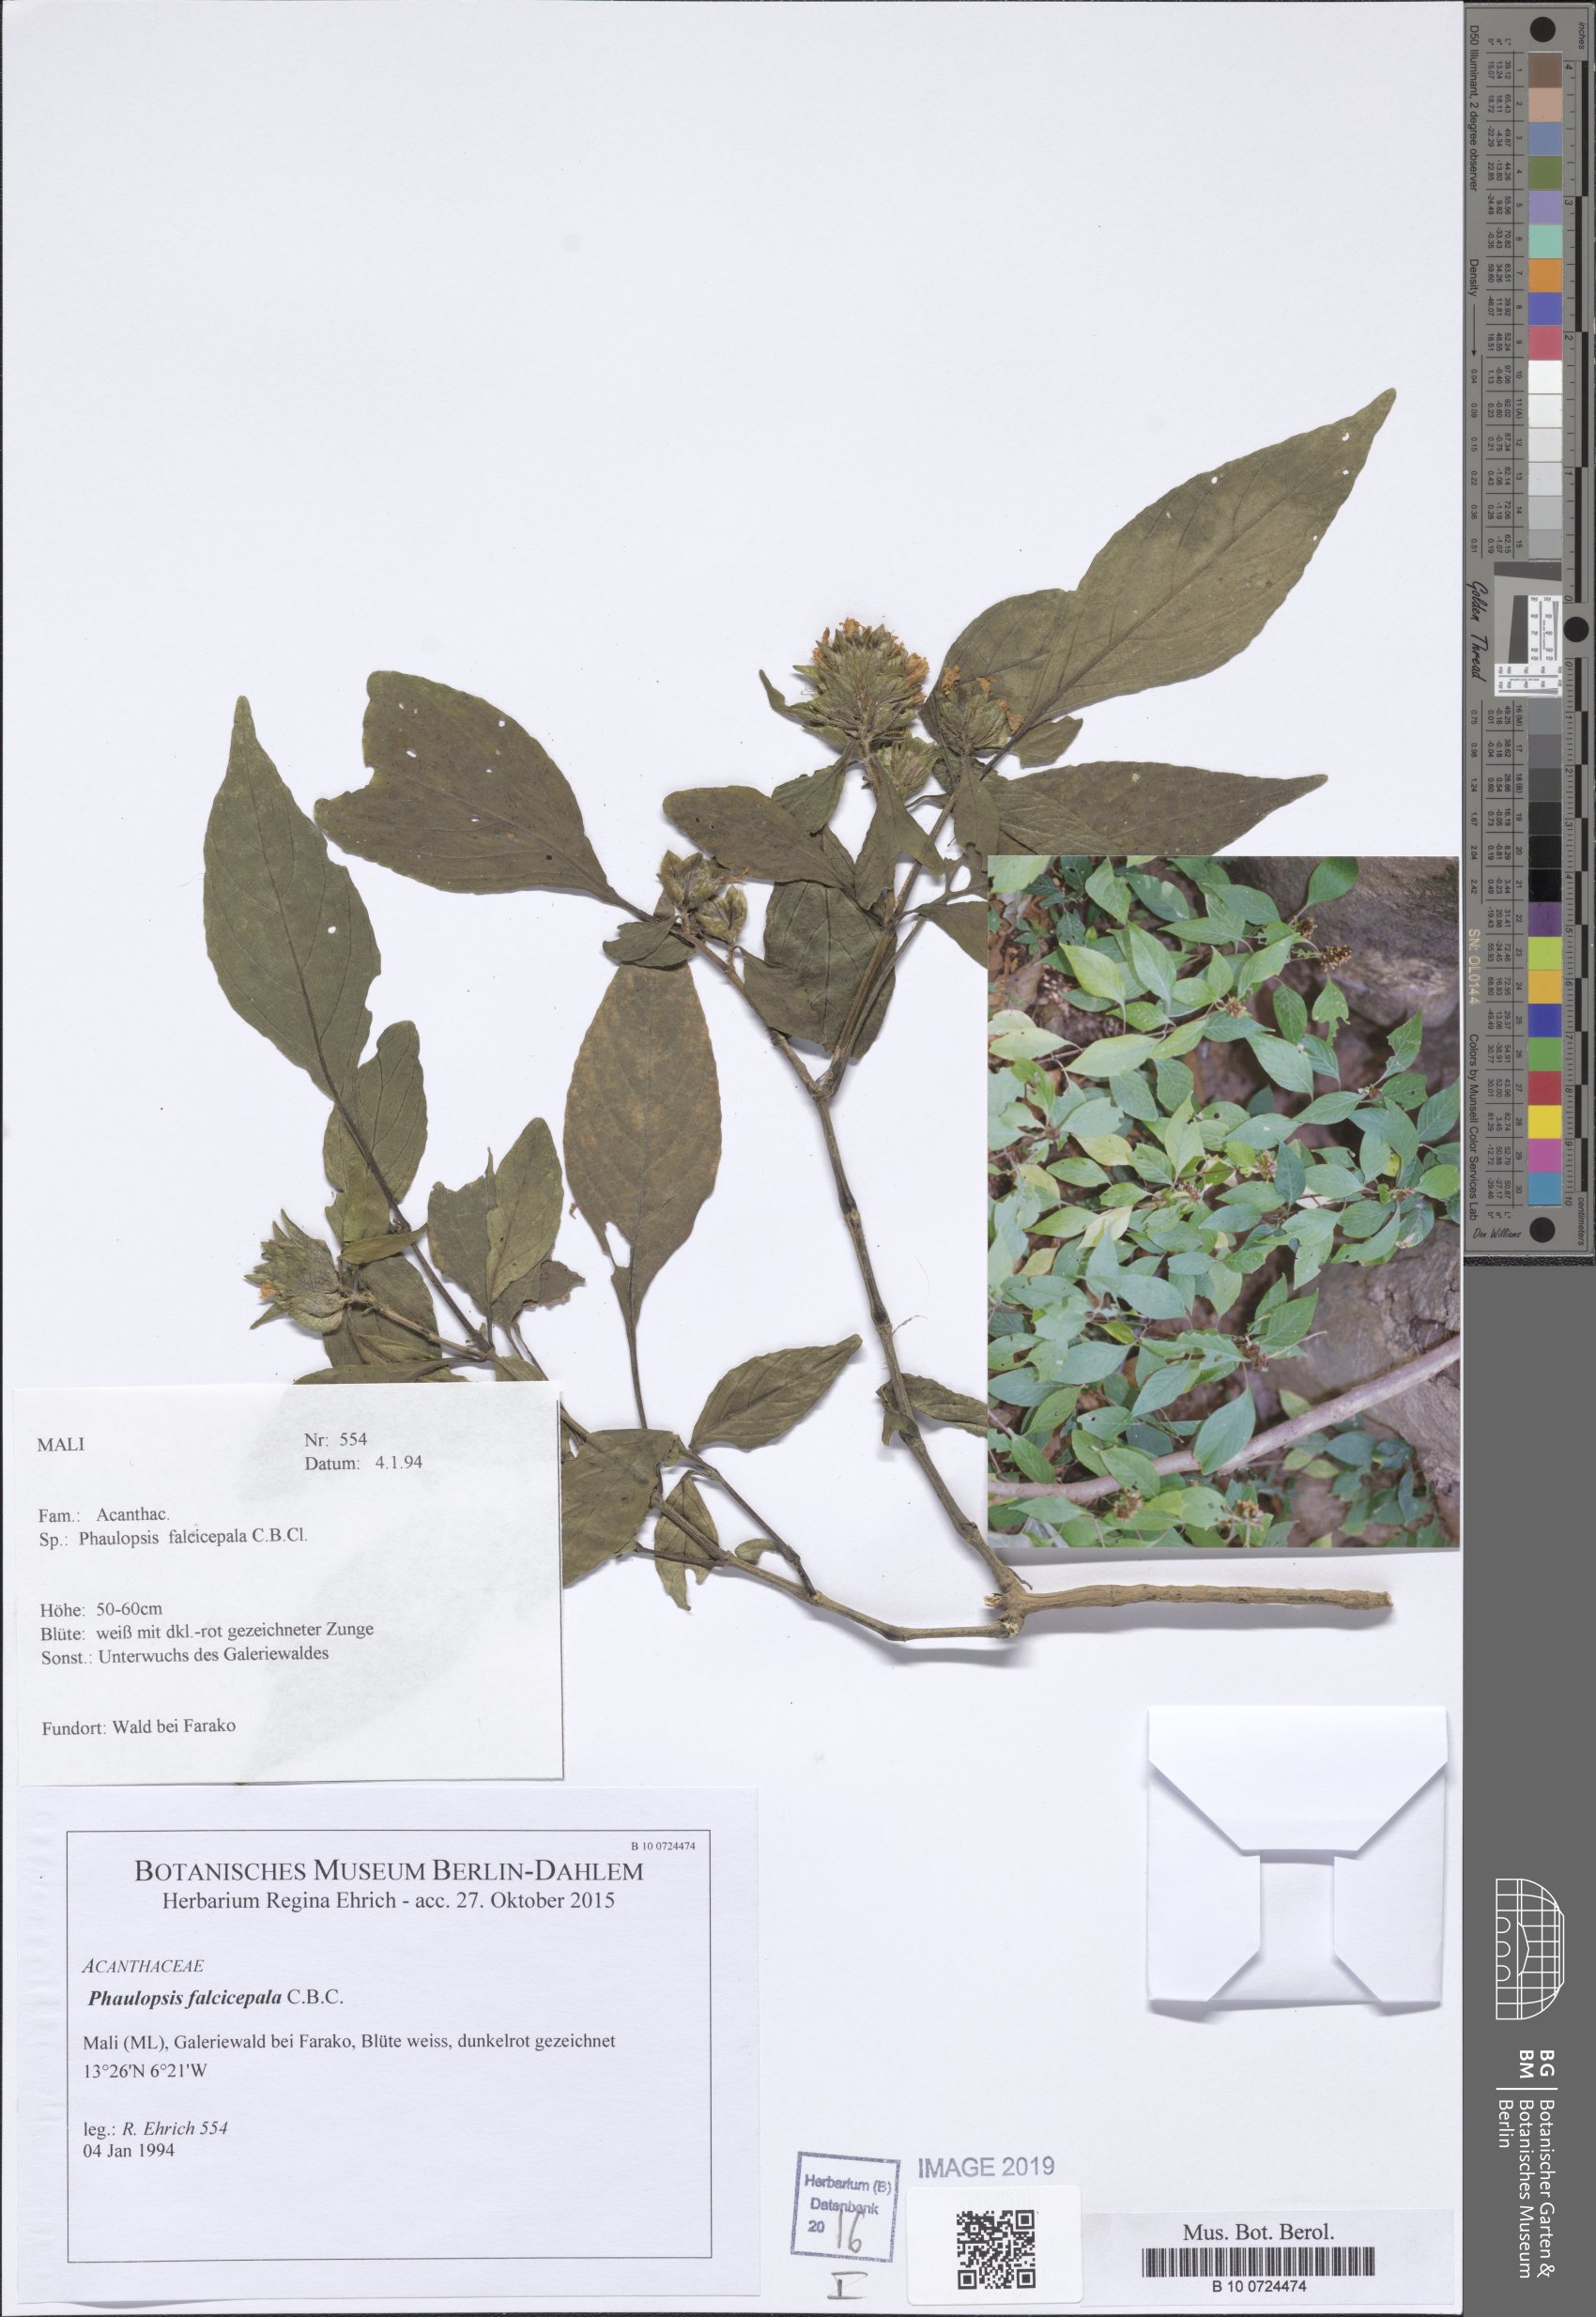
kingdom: Plantae
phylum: Tracheophyta
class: Magnoliopsida
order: Lamiales
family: Acanthaceae
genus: Phaulopsis
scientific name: Phaulopsis ciliata
